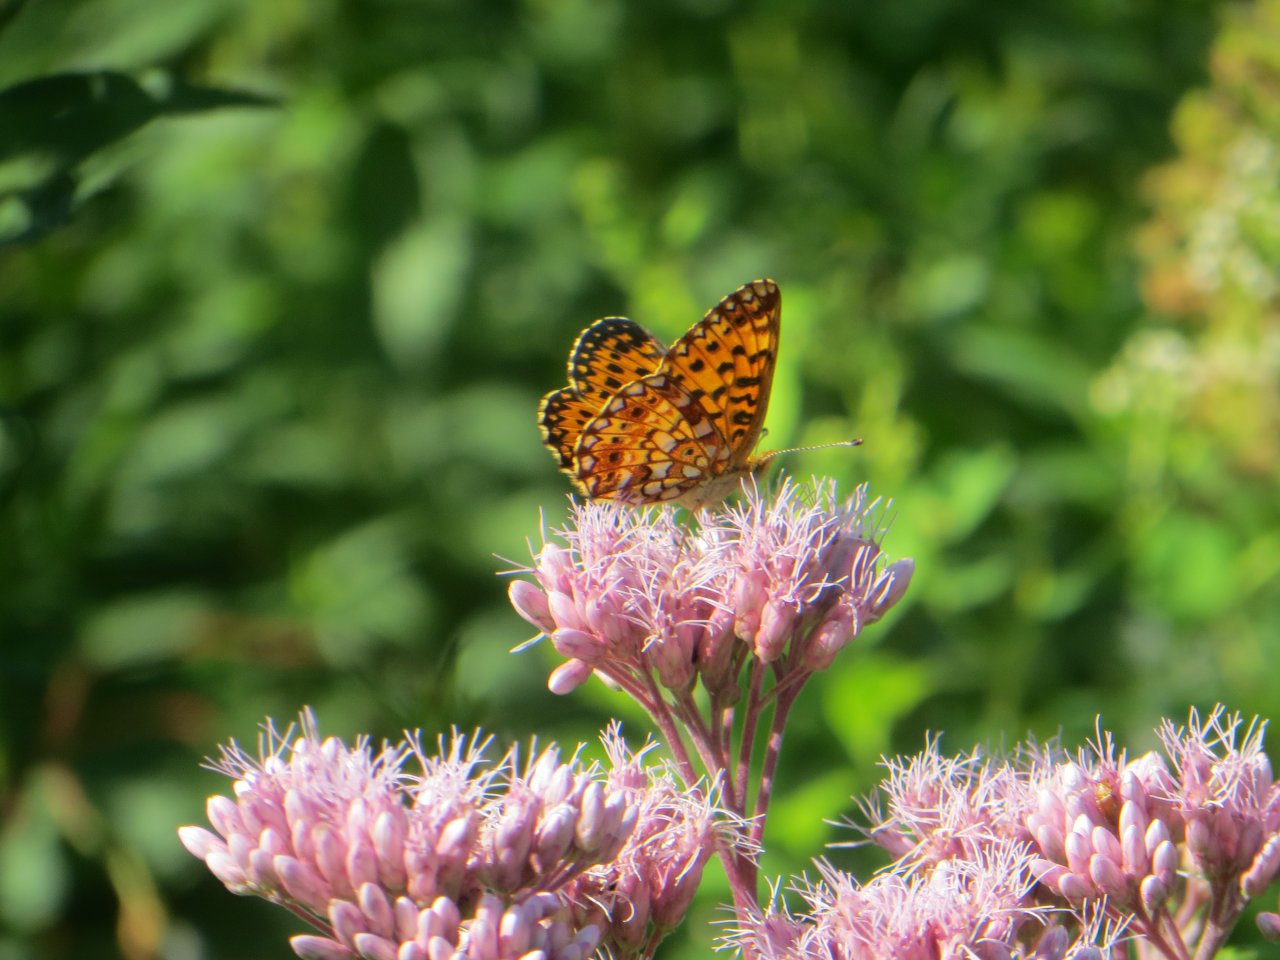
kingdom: Animalia
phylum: Arthropoda
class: Insecta
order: Lepidoptera
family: Nymphalidae
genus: Boloria
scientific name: Boloria selene
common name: Silver-bordered Fritillary
